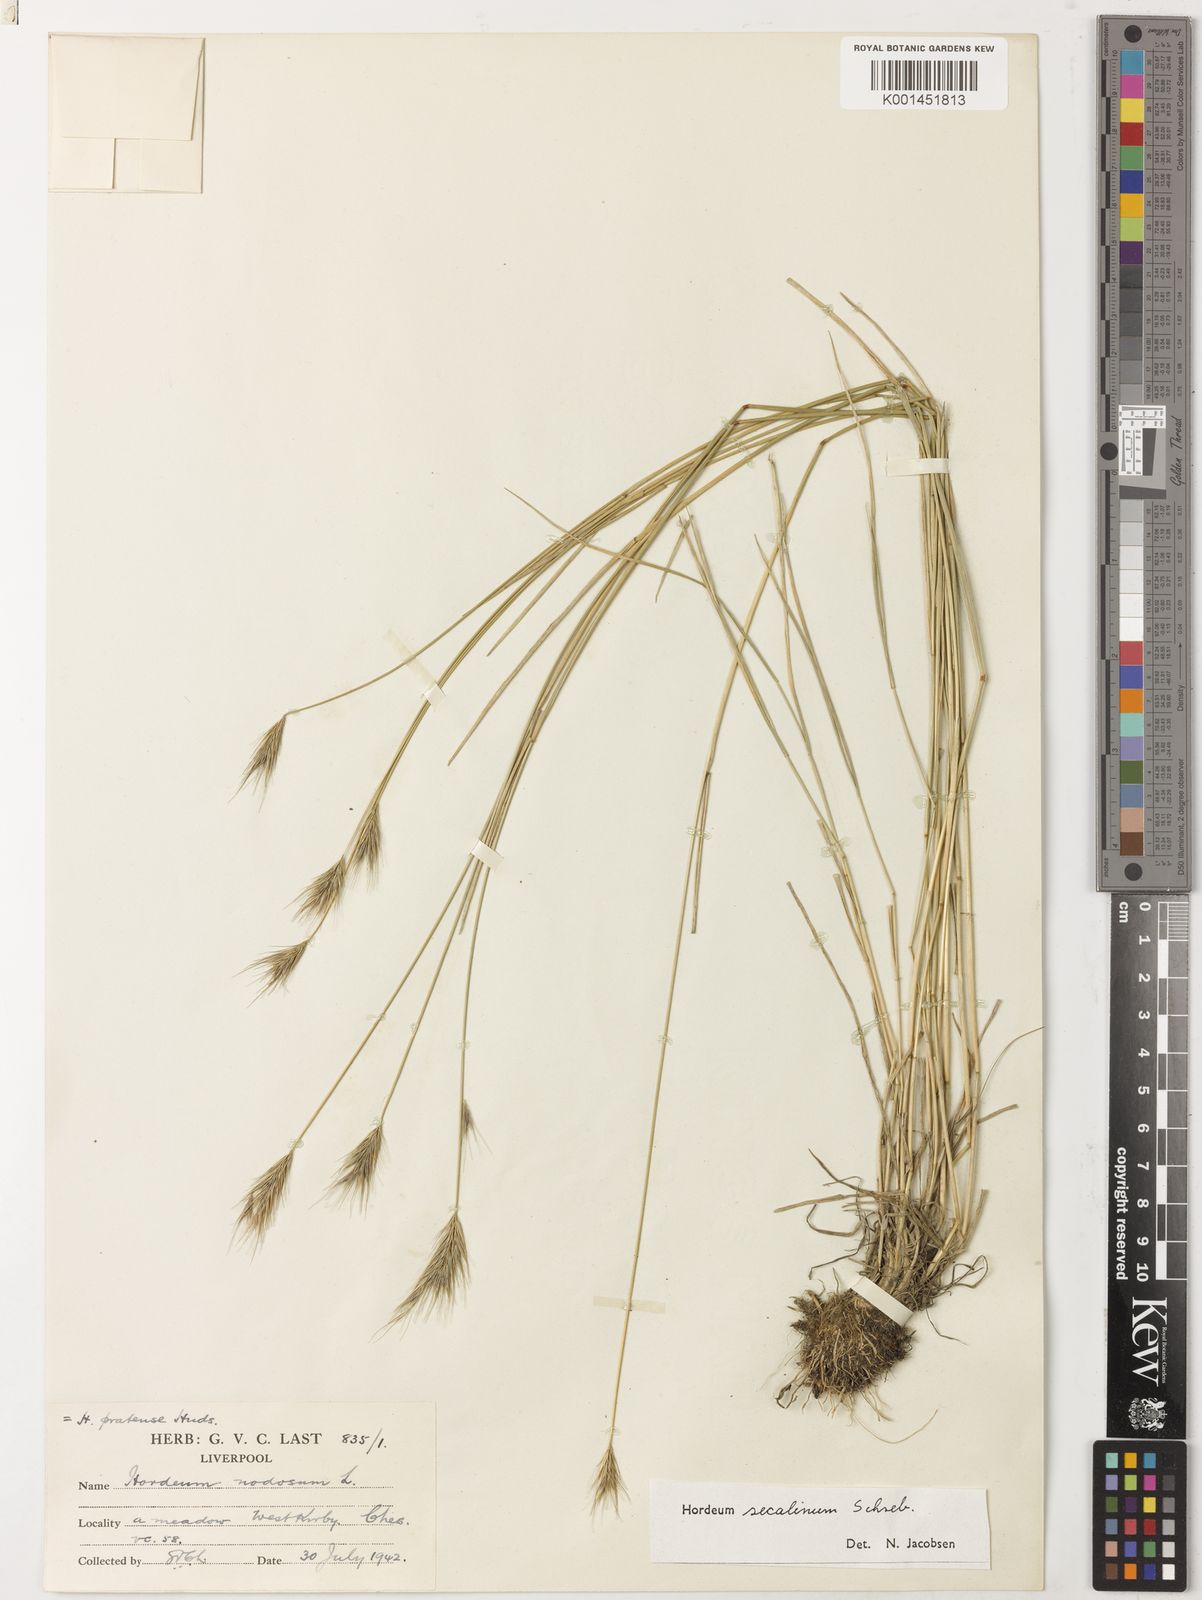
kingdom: Plantae
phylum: Tracheophyta
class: Liliopsida
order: Poales
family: Poaceae
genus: Hordeum
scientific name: Hordeum secalinum
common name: Meadow barley
